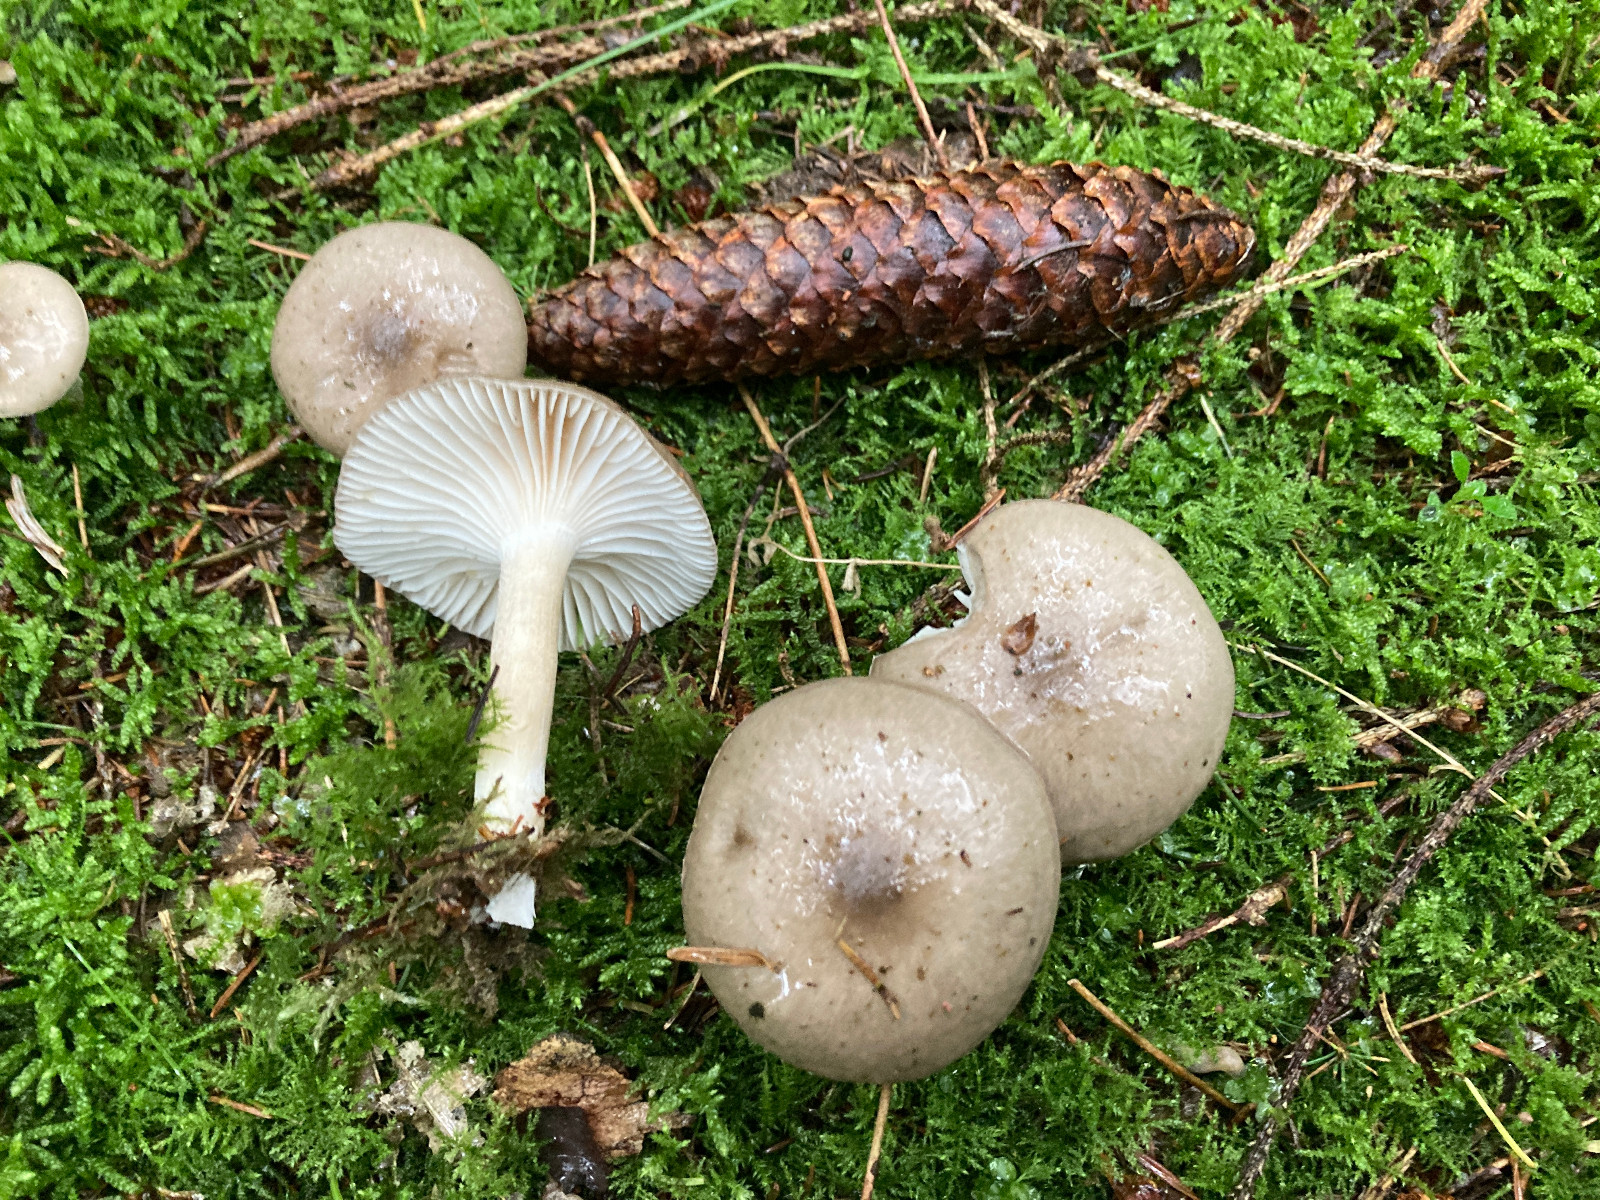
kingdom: Fungi
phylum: Basidiomycota
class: Agaricomycetes
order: Agaricales
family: Hygrophoraceae
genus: Hygrophorus
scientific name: Hygrophorus agathosmus
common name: vellugtende sneglehat
